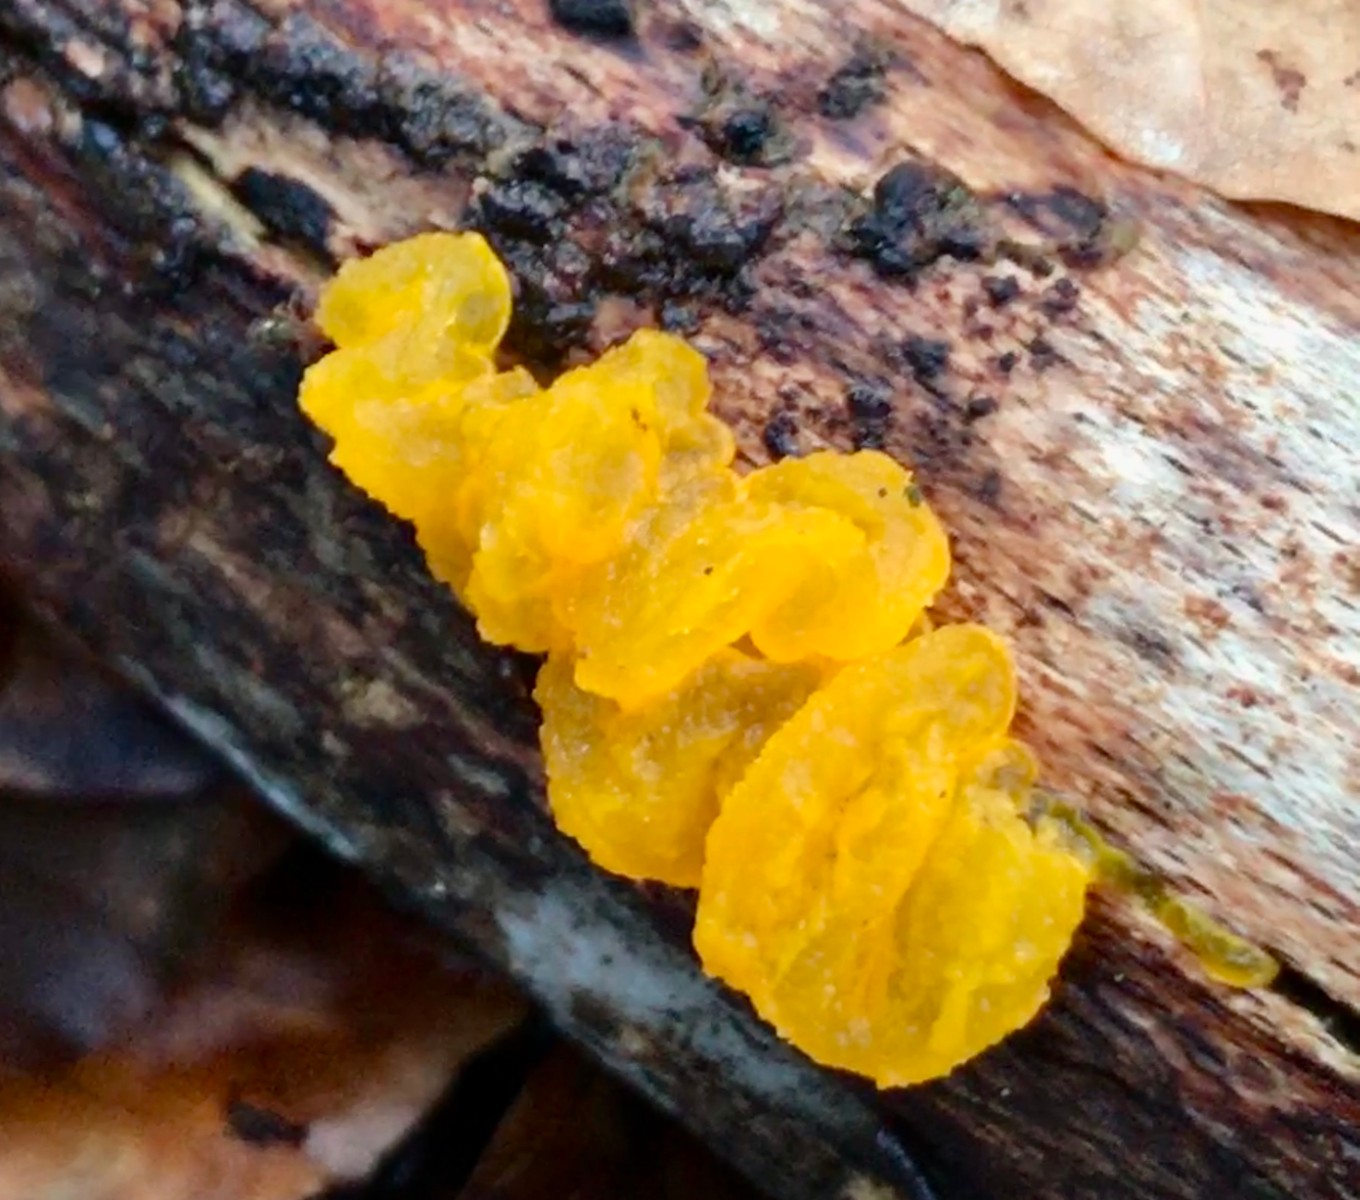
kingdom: Fungi
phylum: Basidiomycota
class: Tremellomycetes
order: Tremellales
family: Tremellaceae
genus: Tremella
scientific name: Tremella mesenterica
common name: gul bævresvamp
